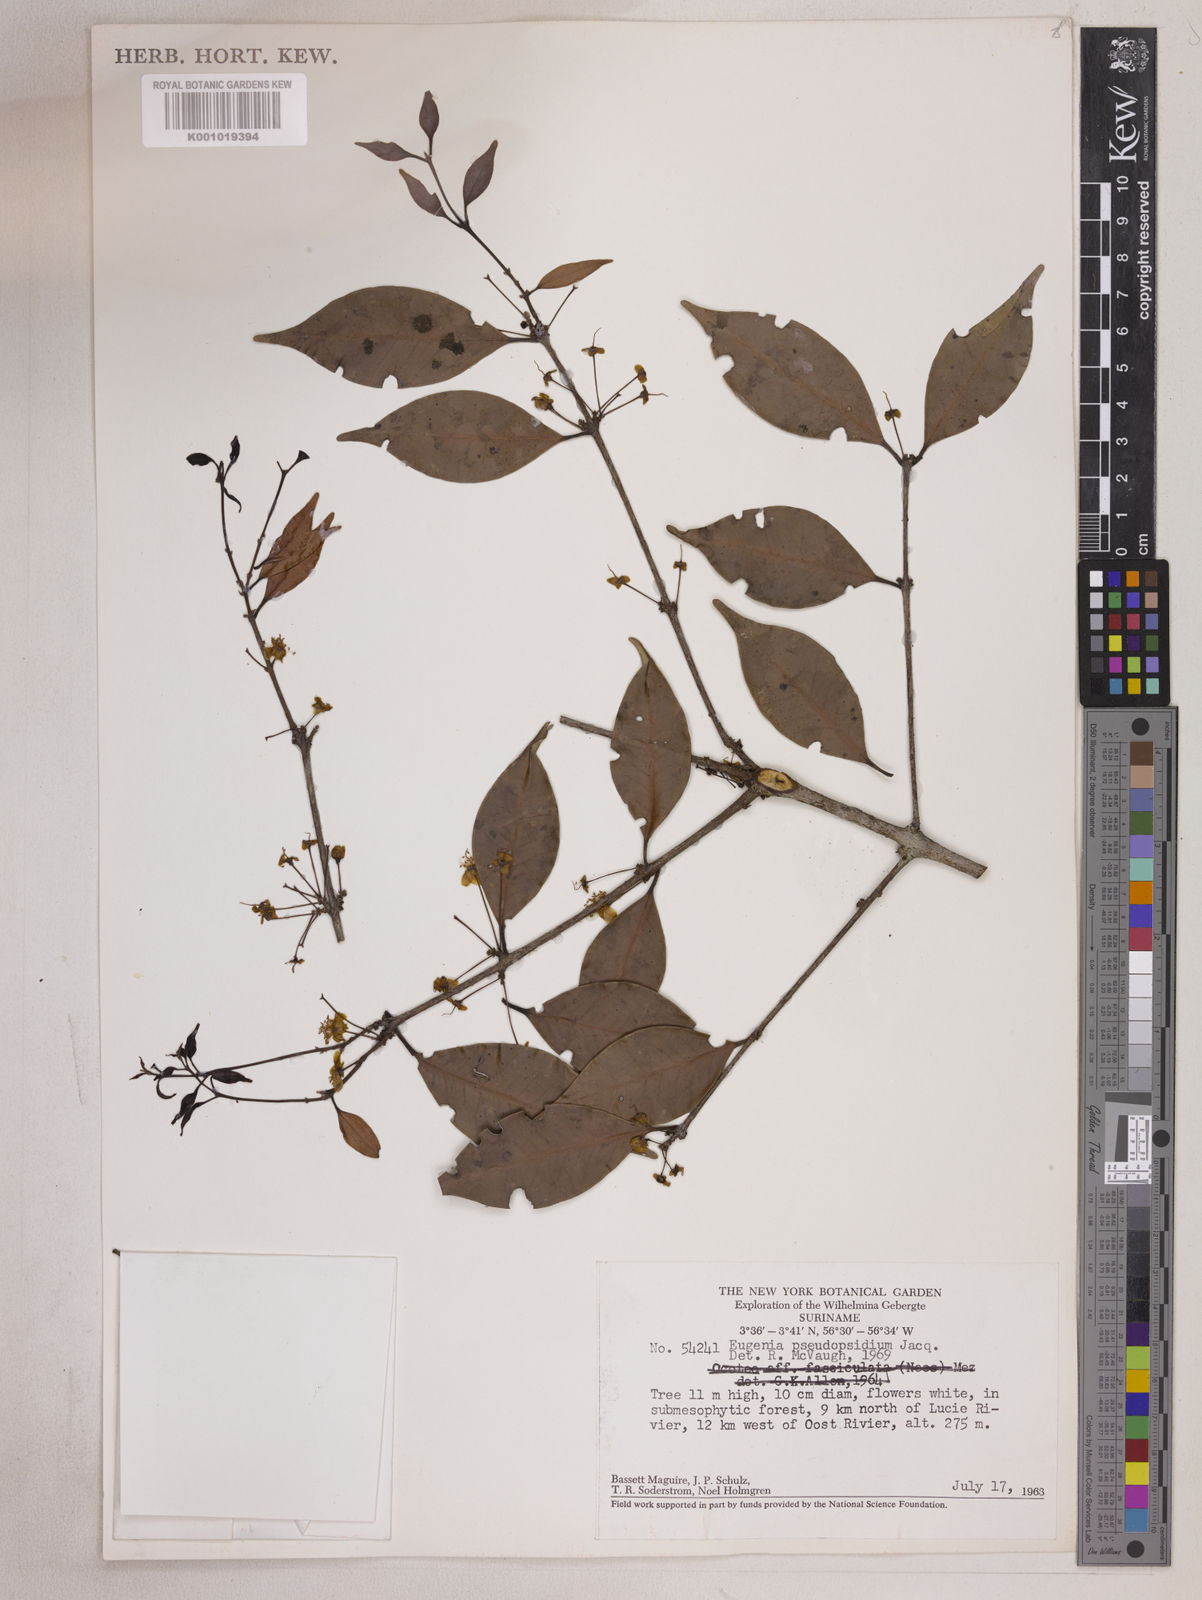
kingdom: Plantae
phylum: Tracheophyta
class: Magnoliopsida
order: Myrtales
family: Myrtaceae
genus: Eugenia
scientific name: Eugenia pseudopsidium
